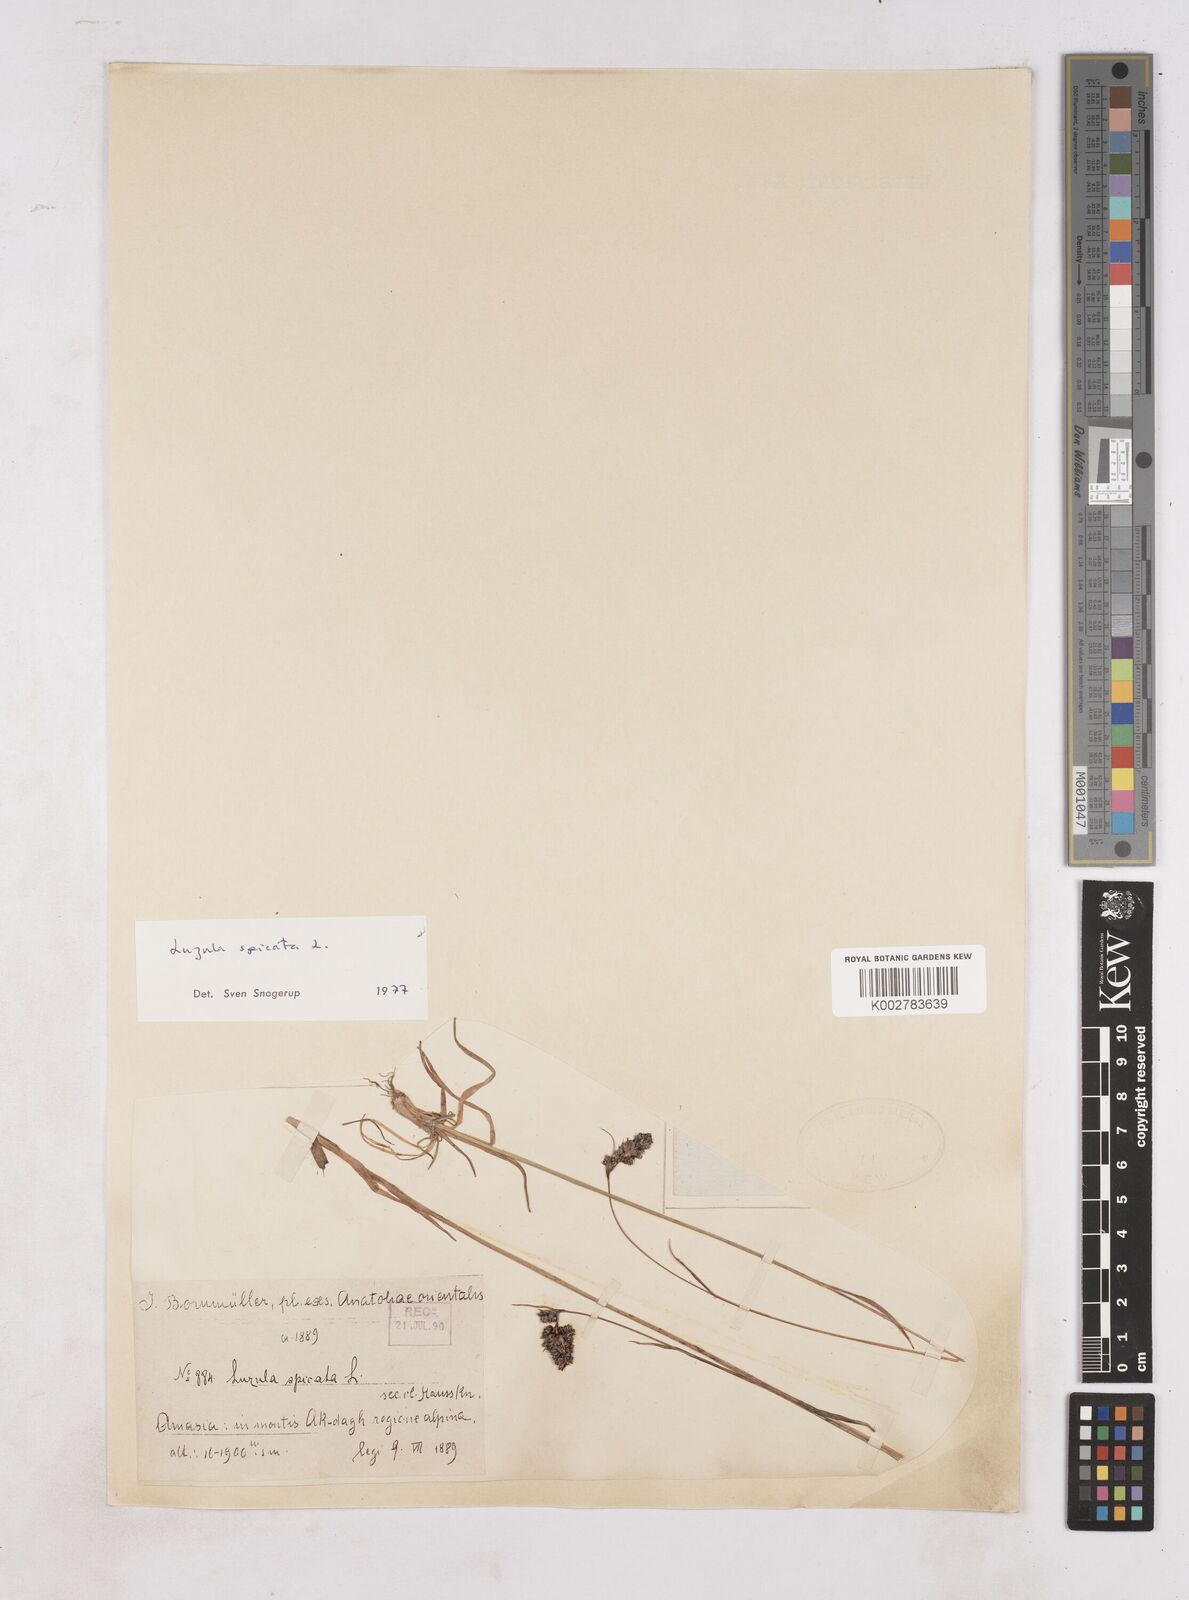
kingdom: Plantae
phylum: Tracheophyta
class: Liliopsida
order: Poales
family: Juncaceae
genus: Luzula
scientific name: Luzula spicata
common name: Spiked wood-rush
